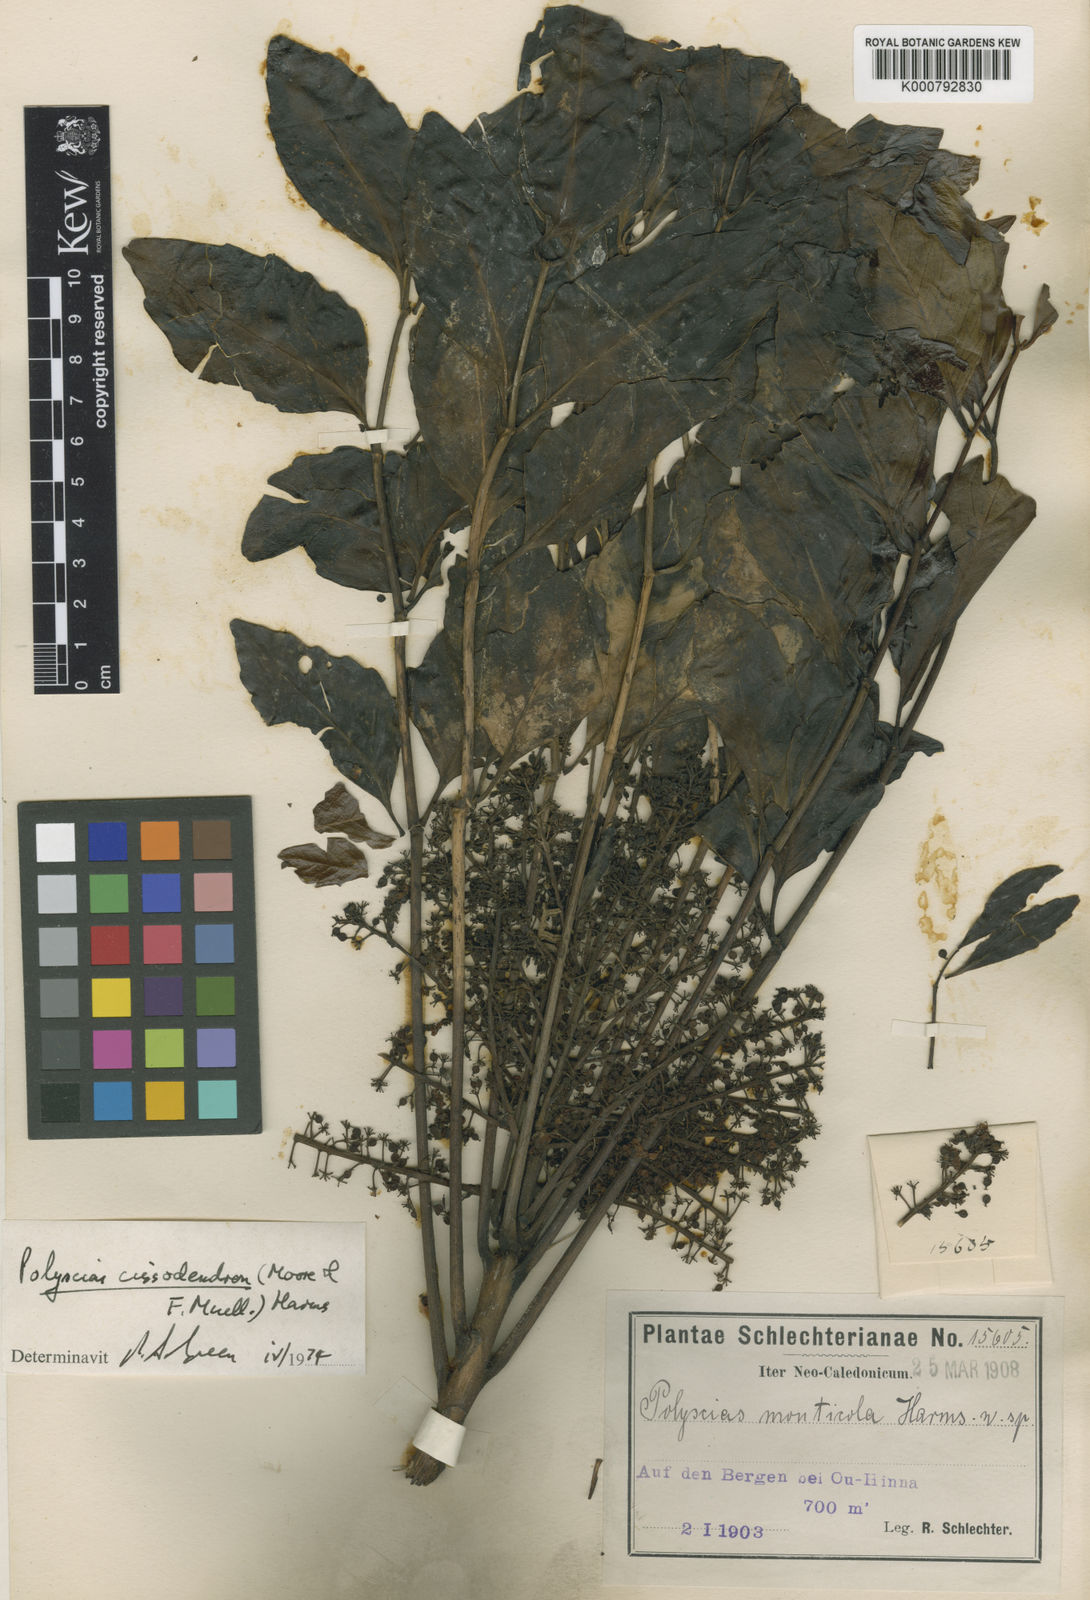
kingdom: Plantae
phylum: Tracheophyta
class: Magnoliopsida
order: Apiales
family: Araliaceae
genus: Polyscias
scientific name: Polyscias cissodendron
